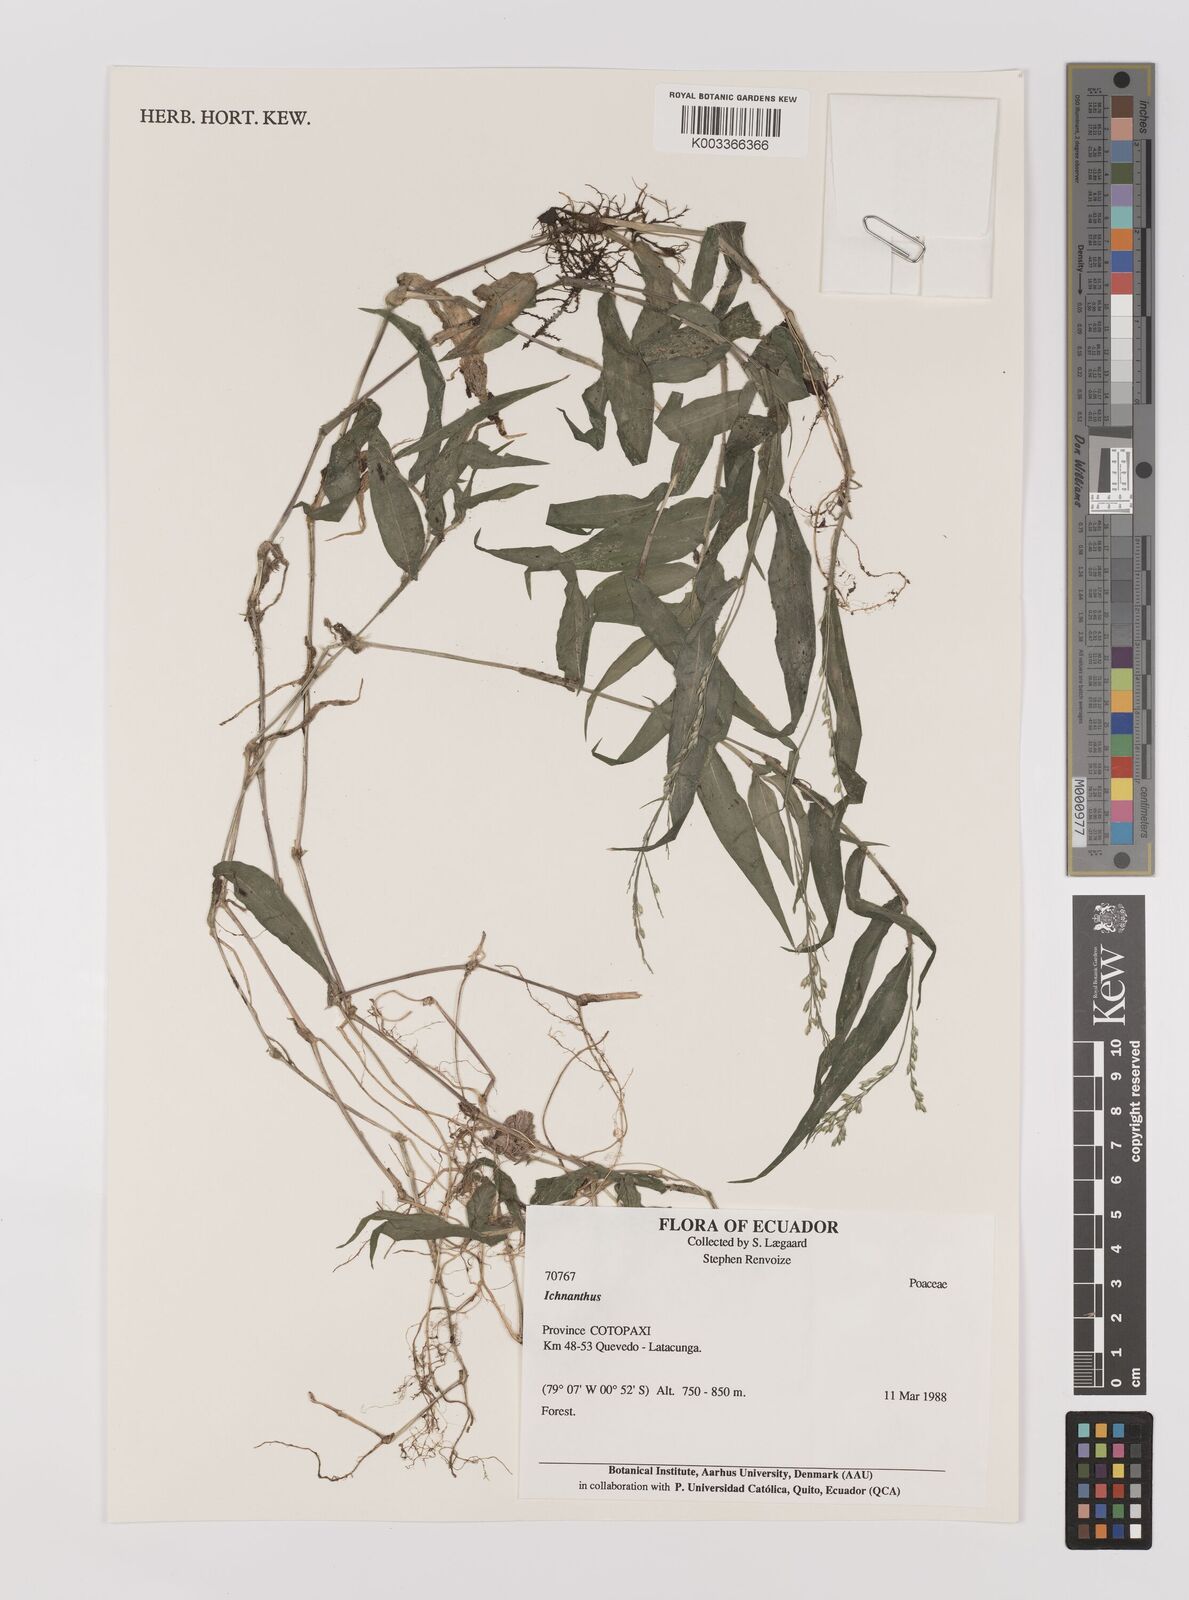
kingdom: Plantae
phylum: Tracheophyta
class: Liliopsida
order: Poales
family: Poaceae
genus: Ichnanthus
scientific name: Ichnanthus tenuis
